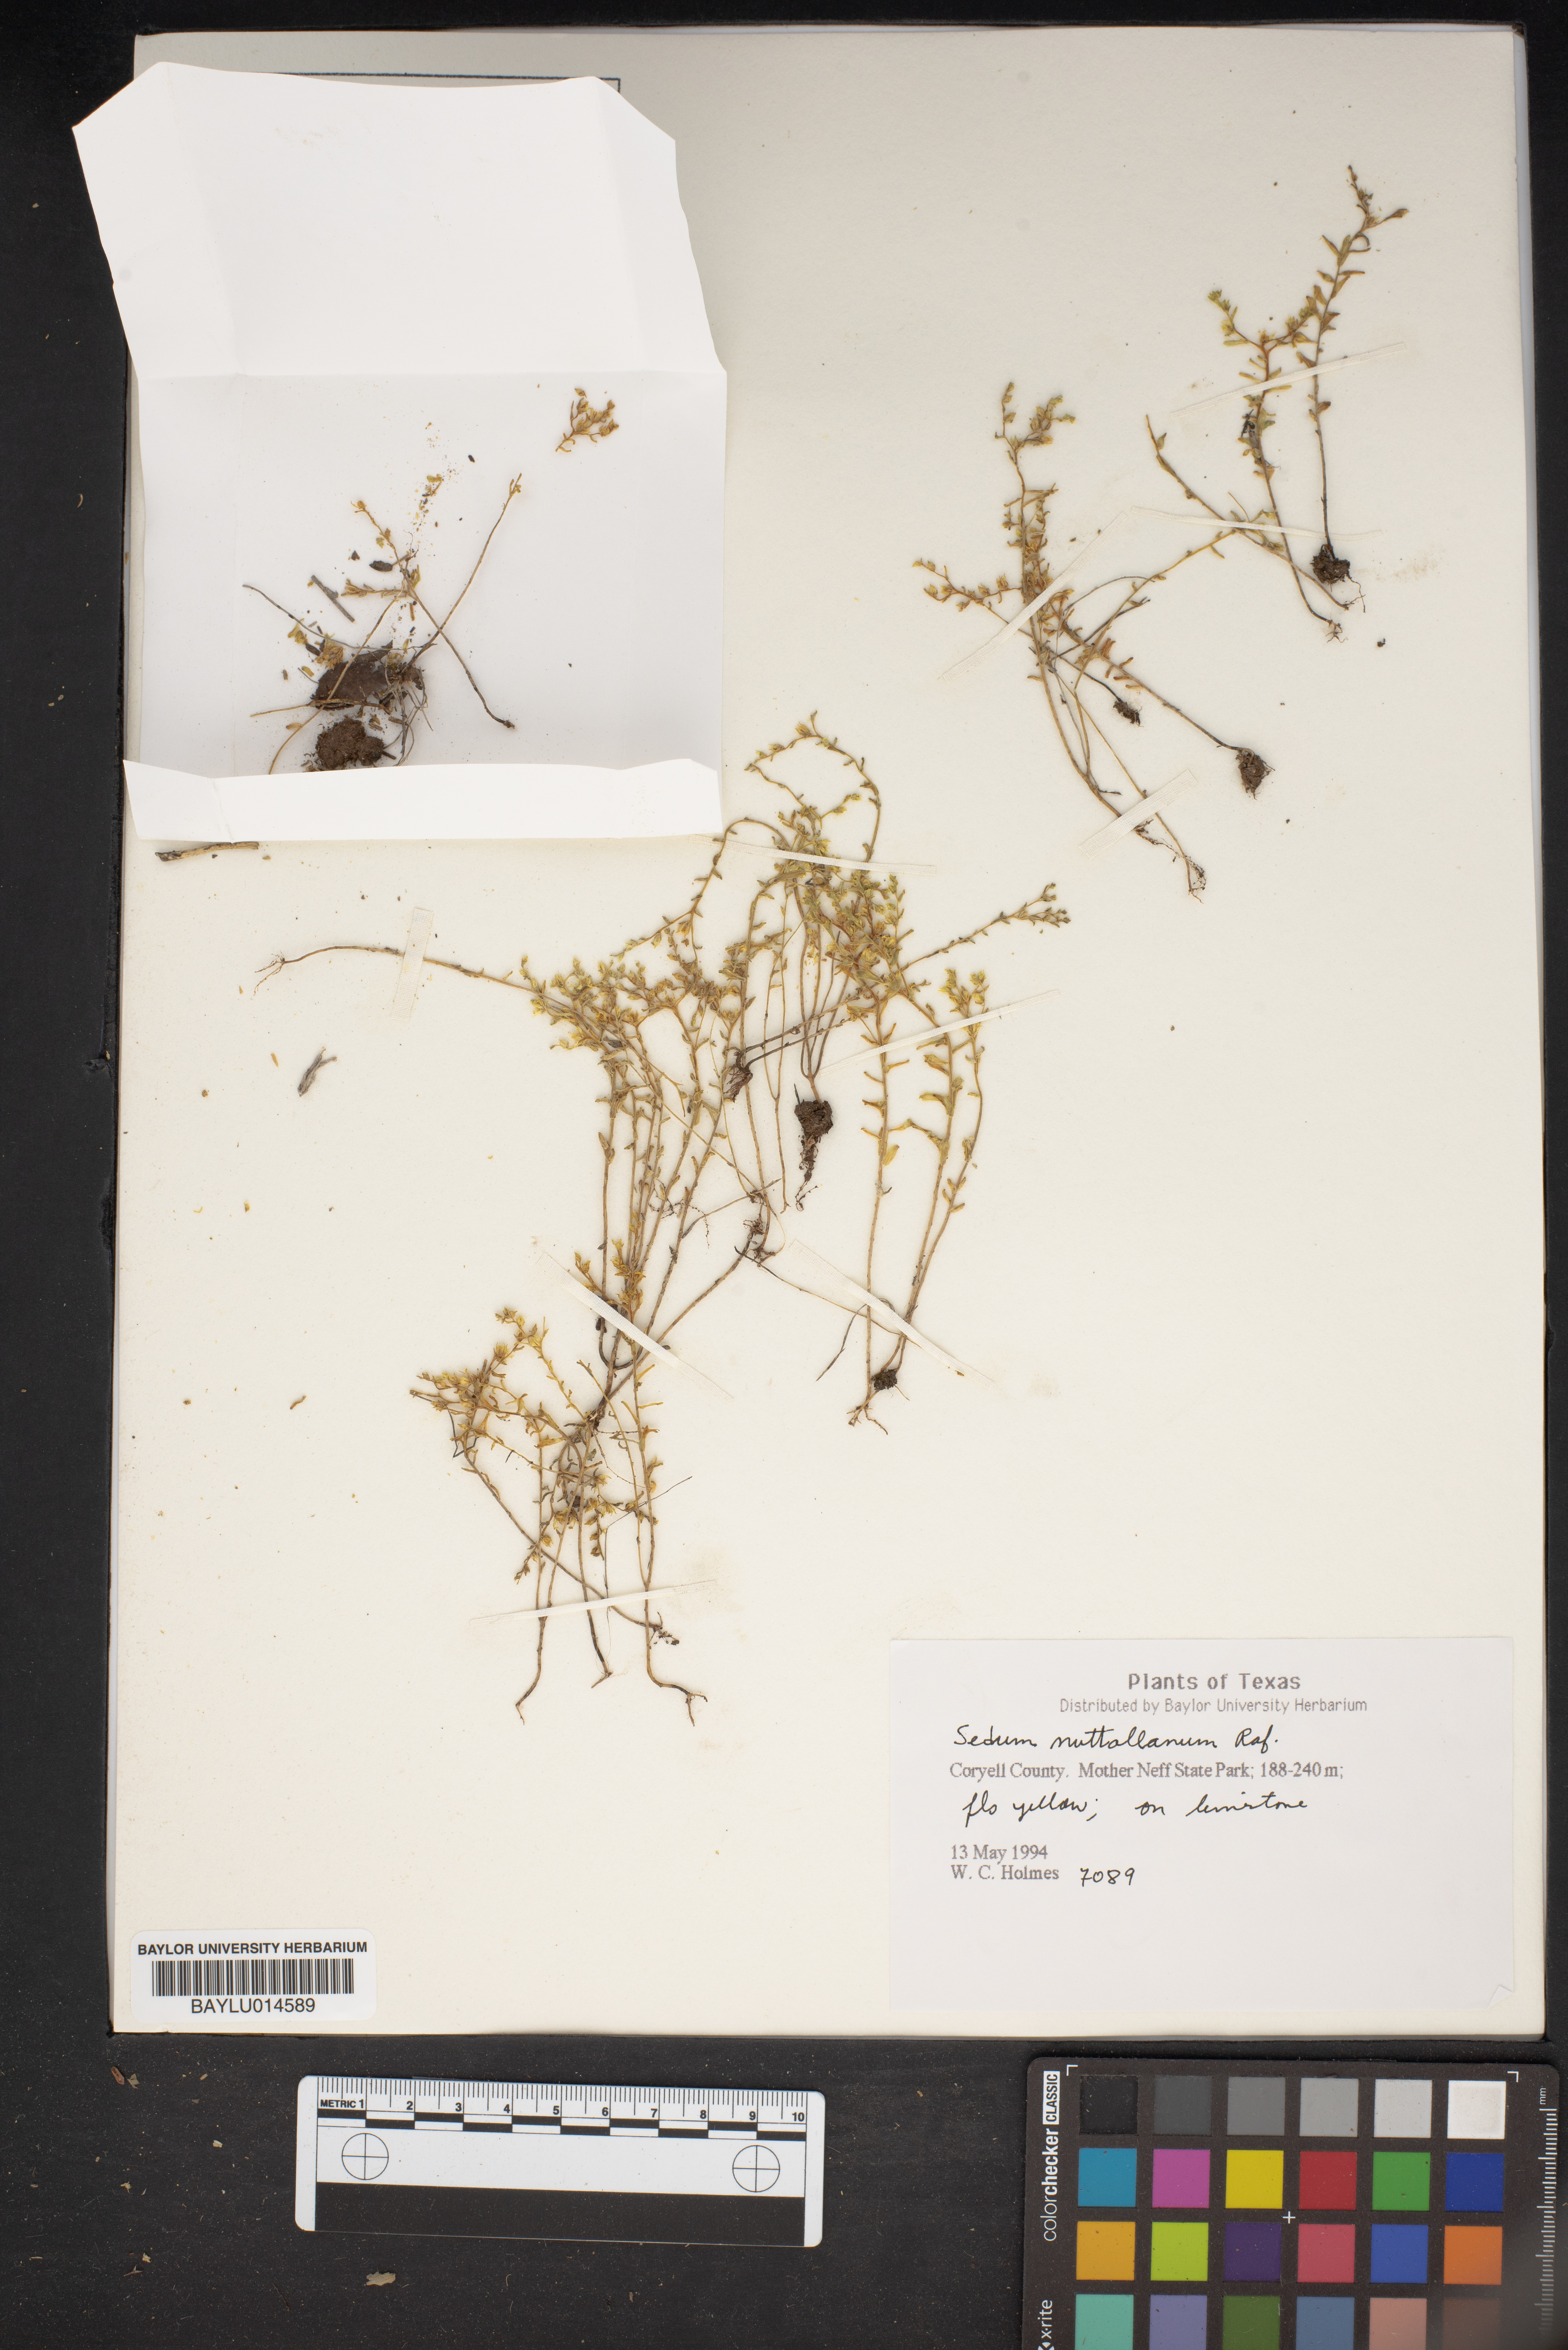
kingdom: Plantae
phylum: Tracheophyta
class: Magnoliopsida
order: Saxifragales
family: Crassulaceae
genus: Sedum
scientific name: Sedum nuttallii
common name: Yellow stonecrop
